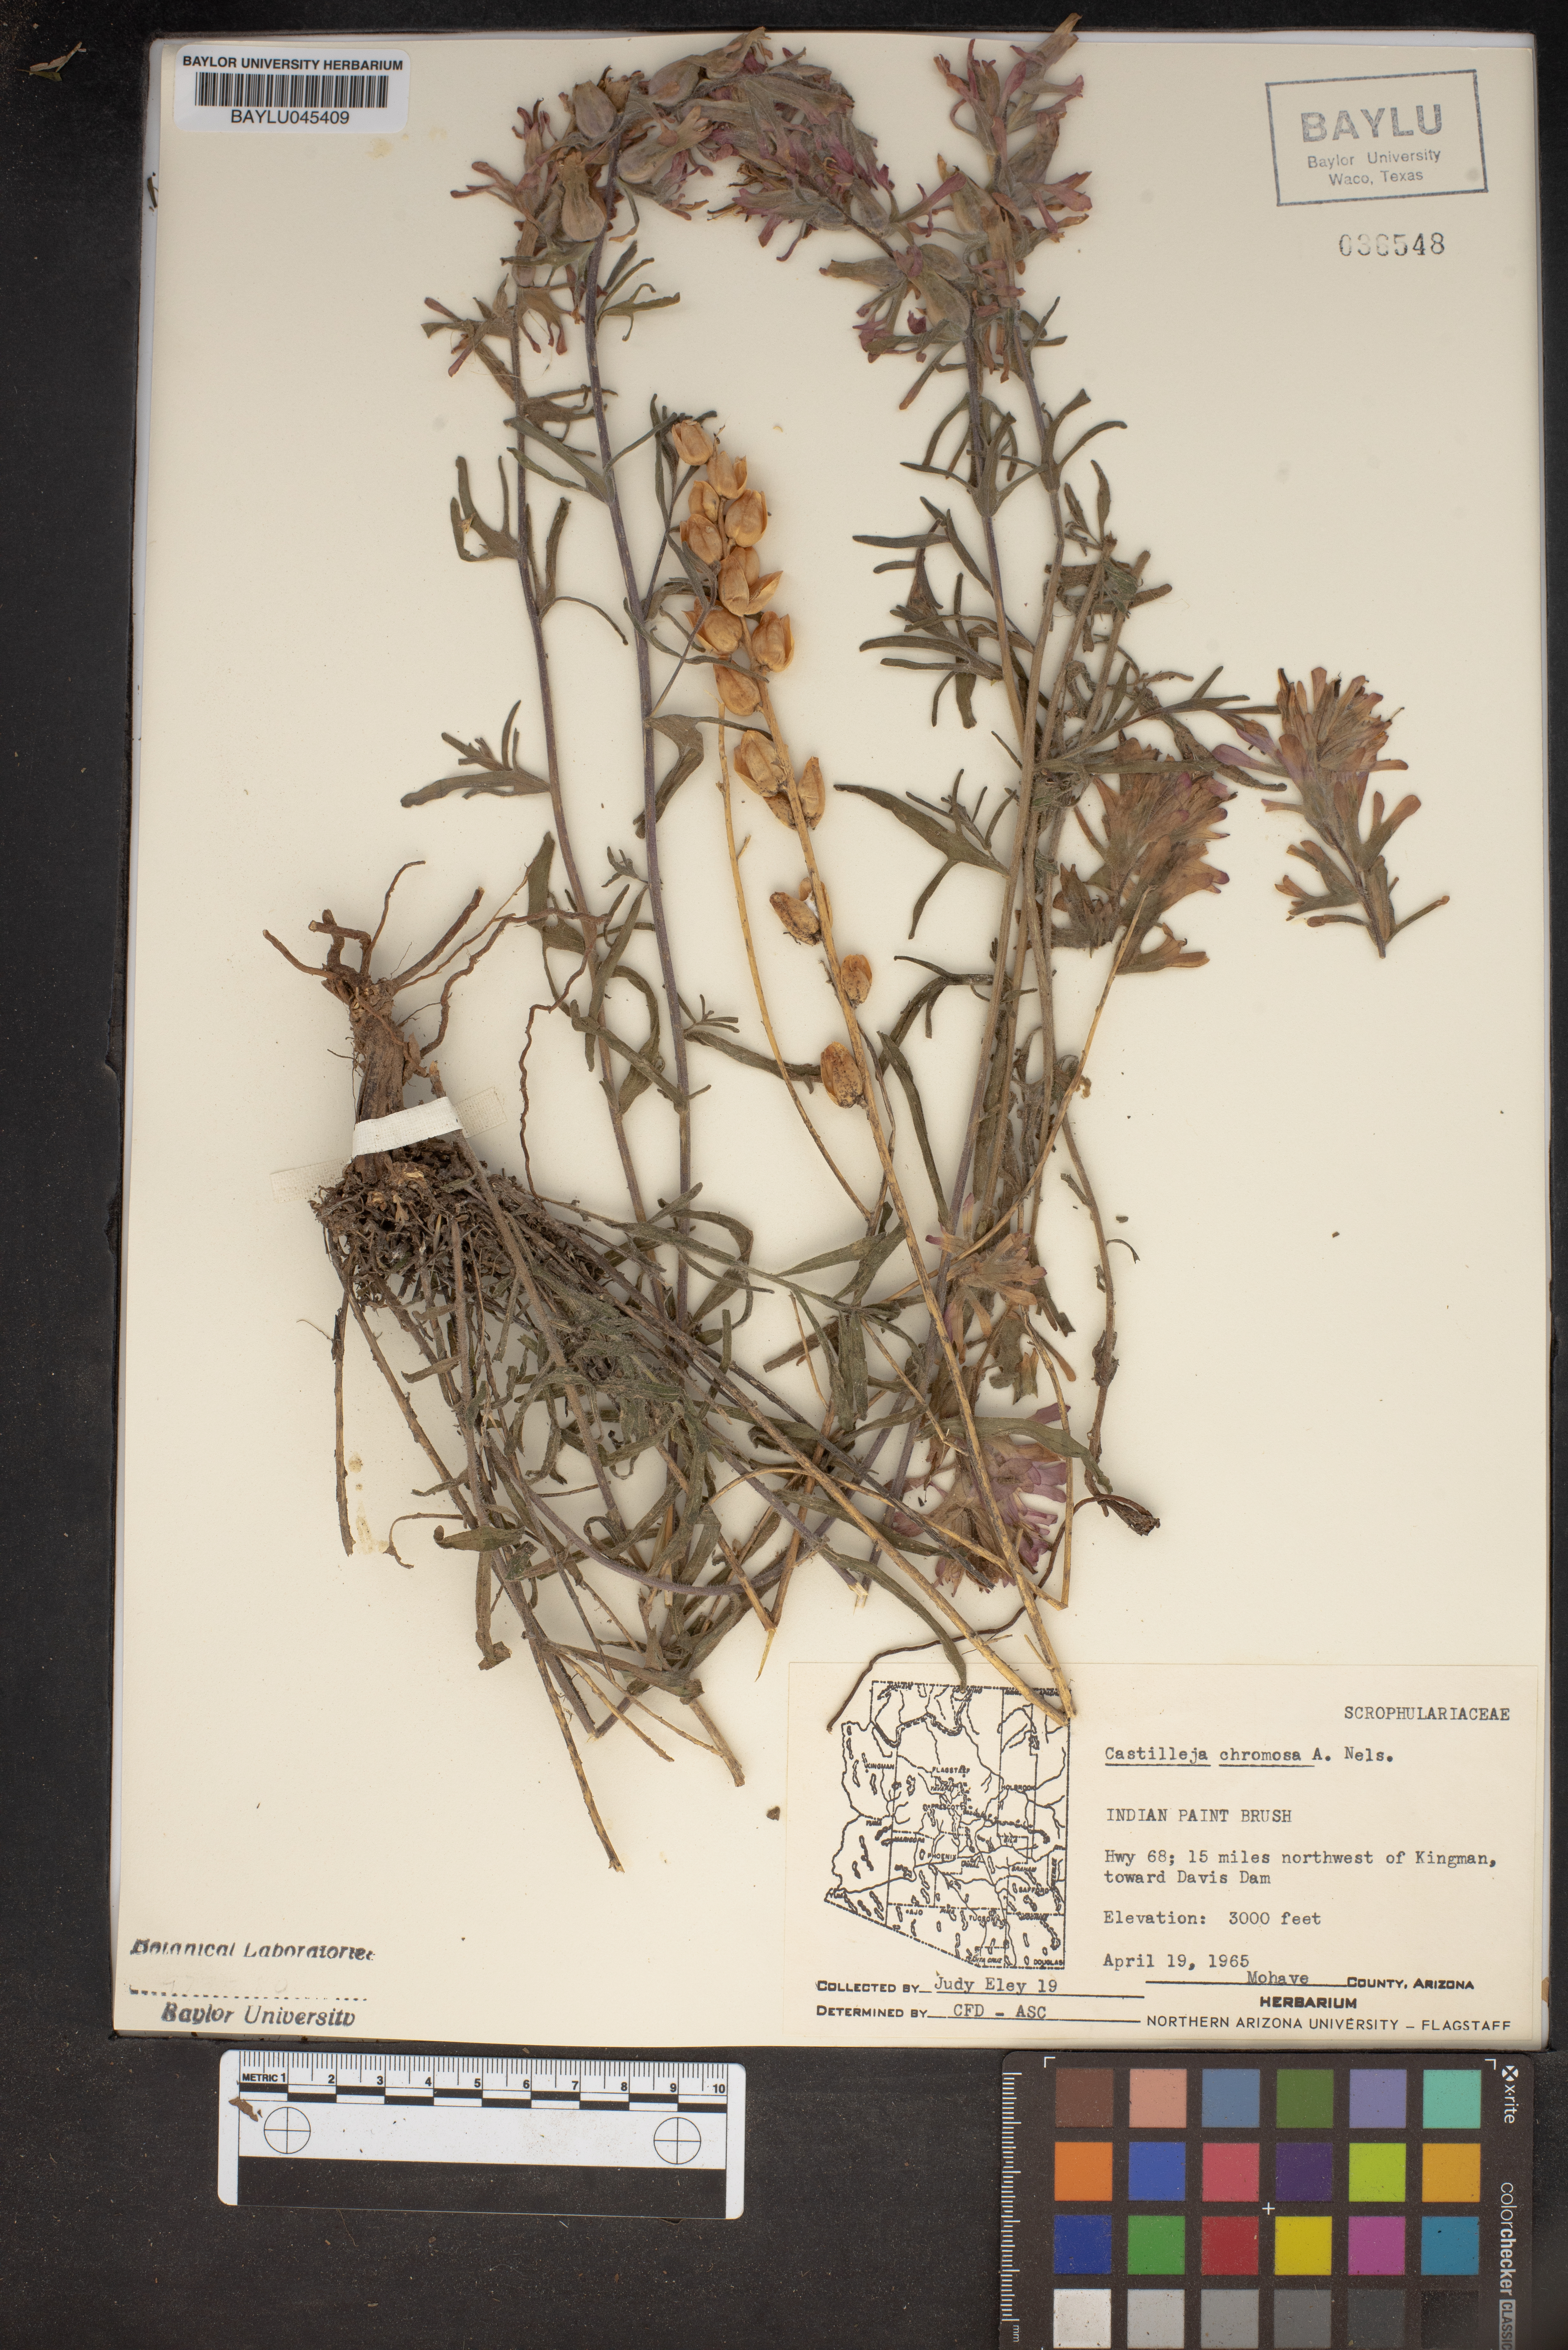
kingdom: Plantae
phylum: Tracheophyta
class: Magnoliopsida
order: Lamiales
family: Orobanchaceae
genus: Castilleja
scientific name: Castilleja chromosa
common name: Desert paintbrush
